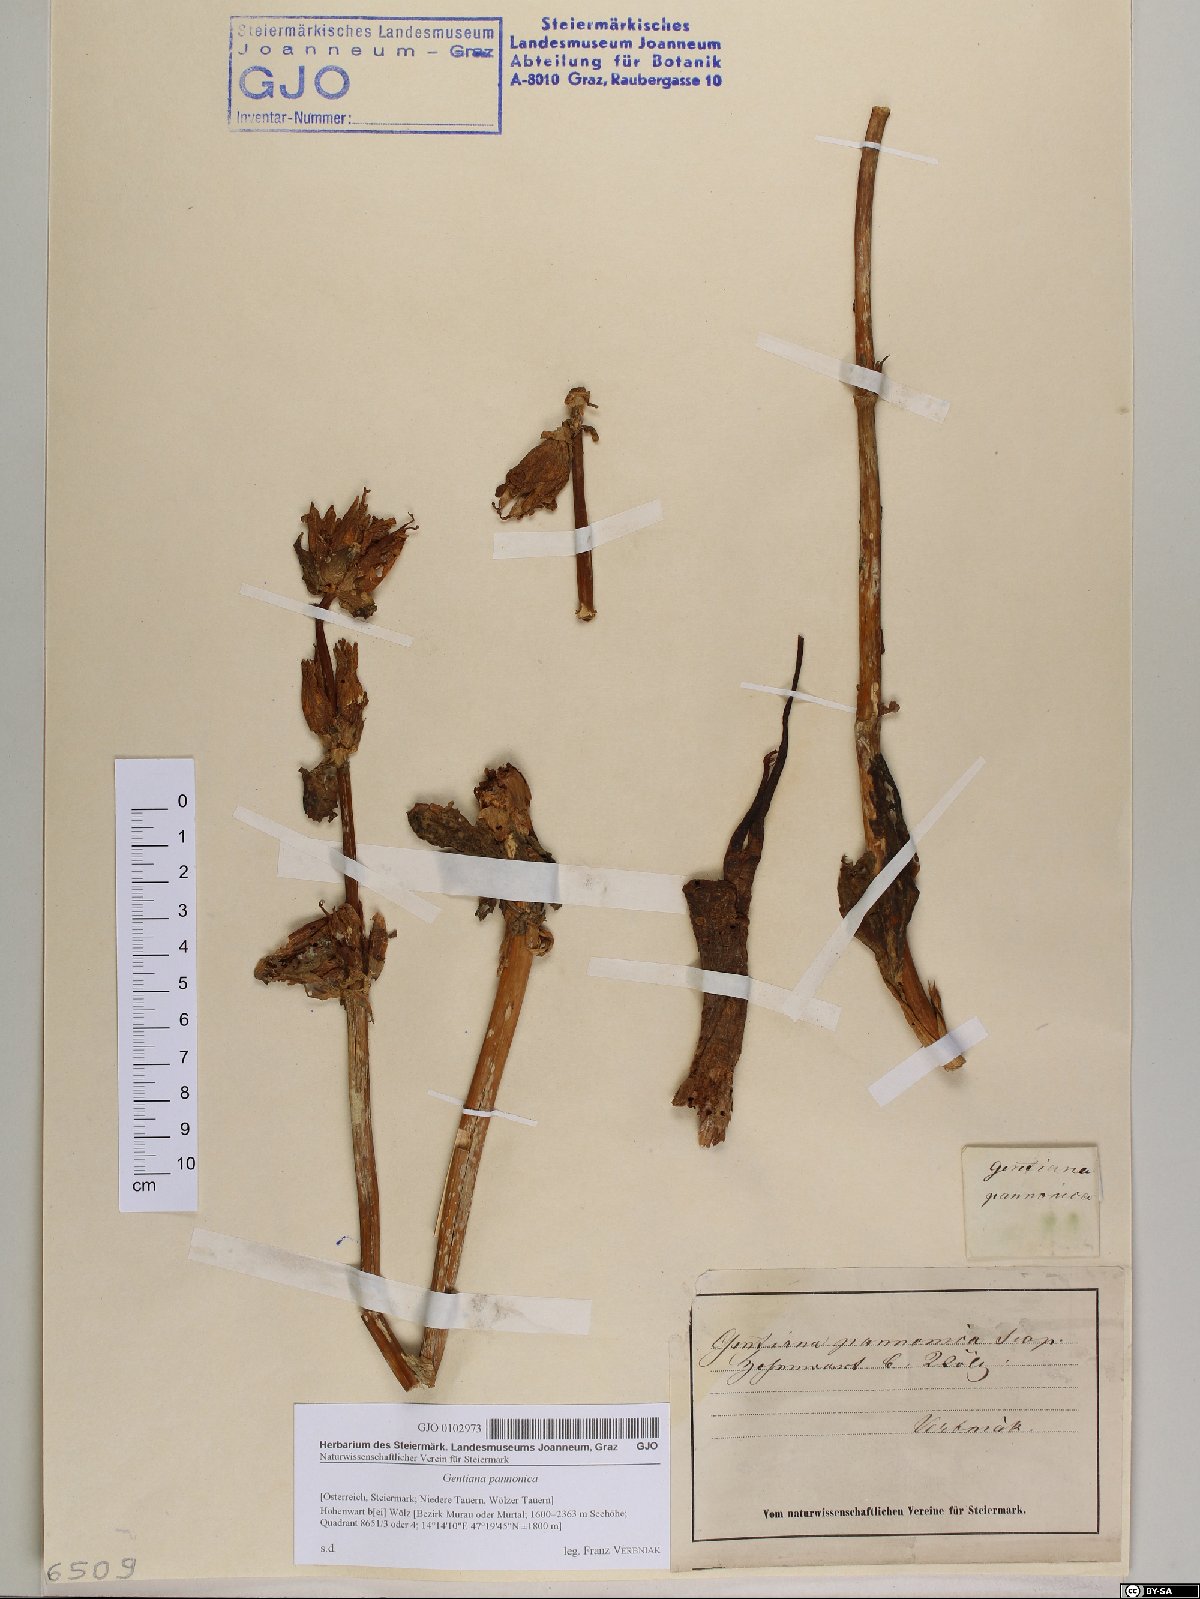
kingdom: Plantae
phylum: Tracheophyta
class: Magnoliopsida
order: Gentianales
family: Gentianaceae
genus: Gentiana
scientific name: Gentiana pannonica
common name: Hungarian gentian
